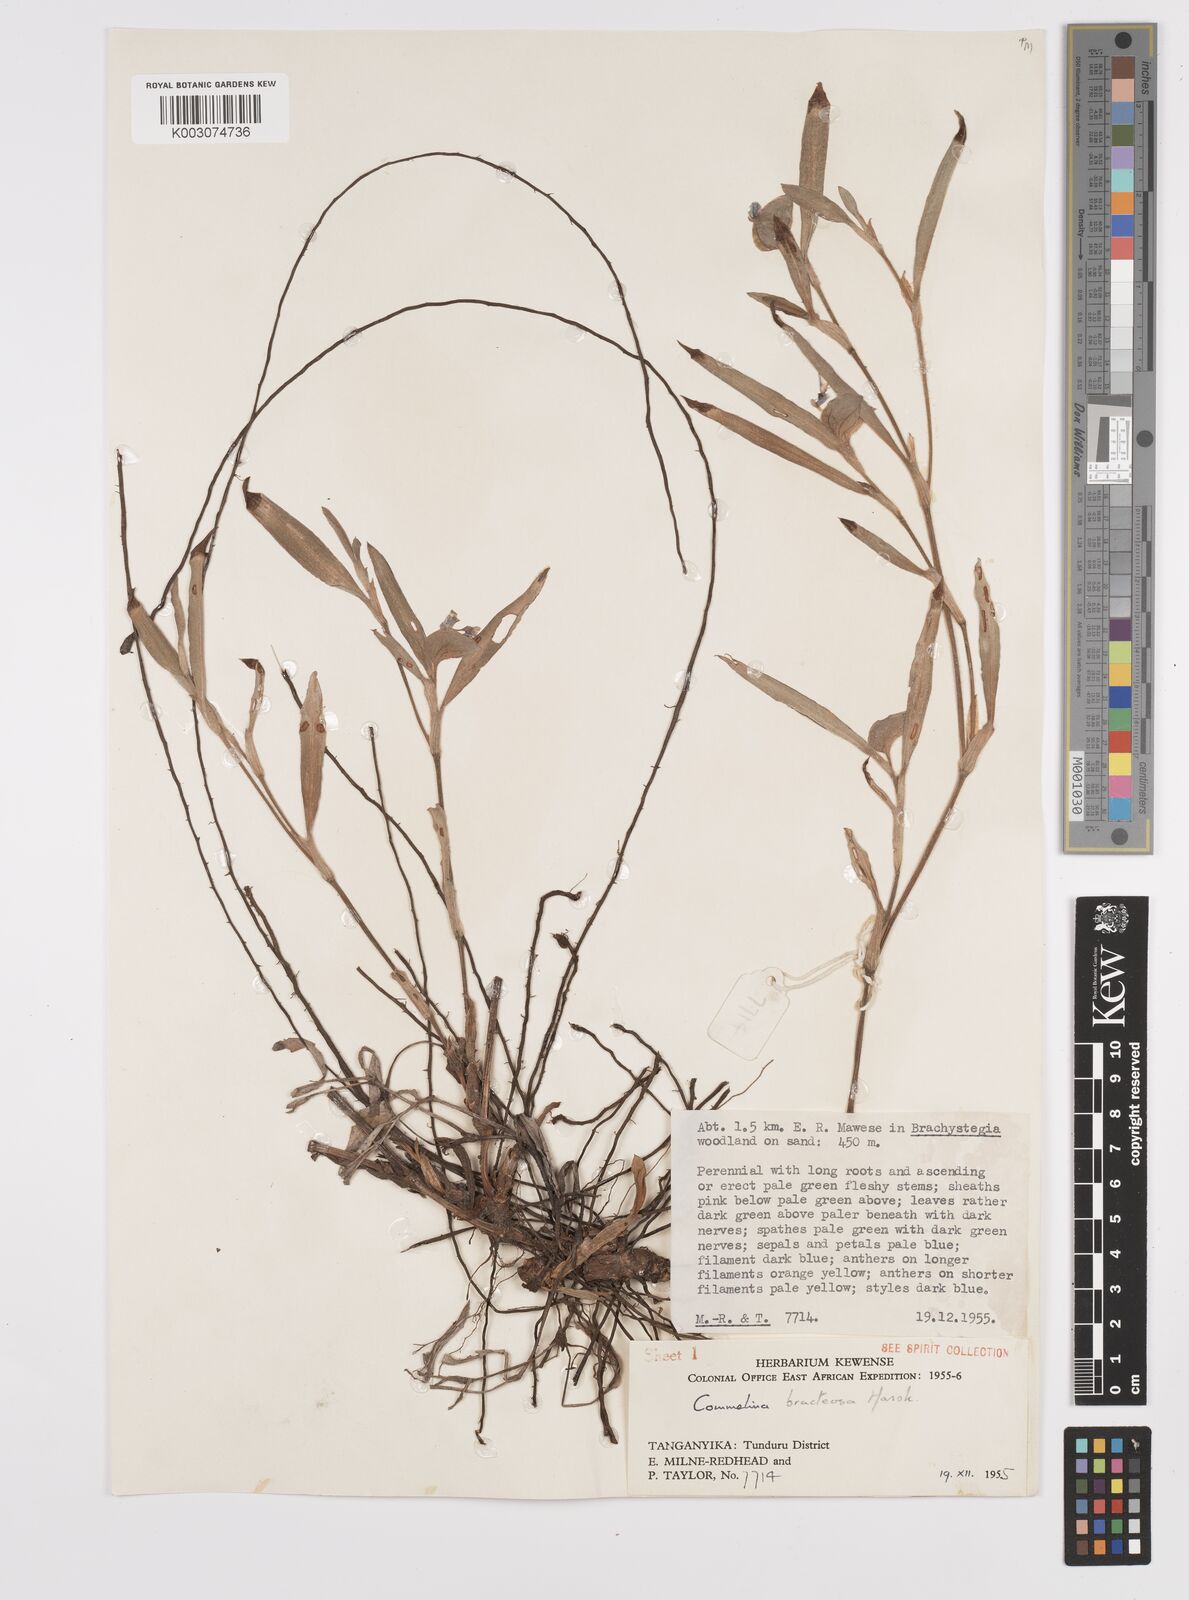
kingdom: Plantae
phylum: Tracheophyta
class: Liliopsida
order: Commelinales
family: Commelinaceae
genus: Commelina
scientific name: Commelina bracteosa
